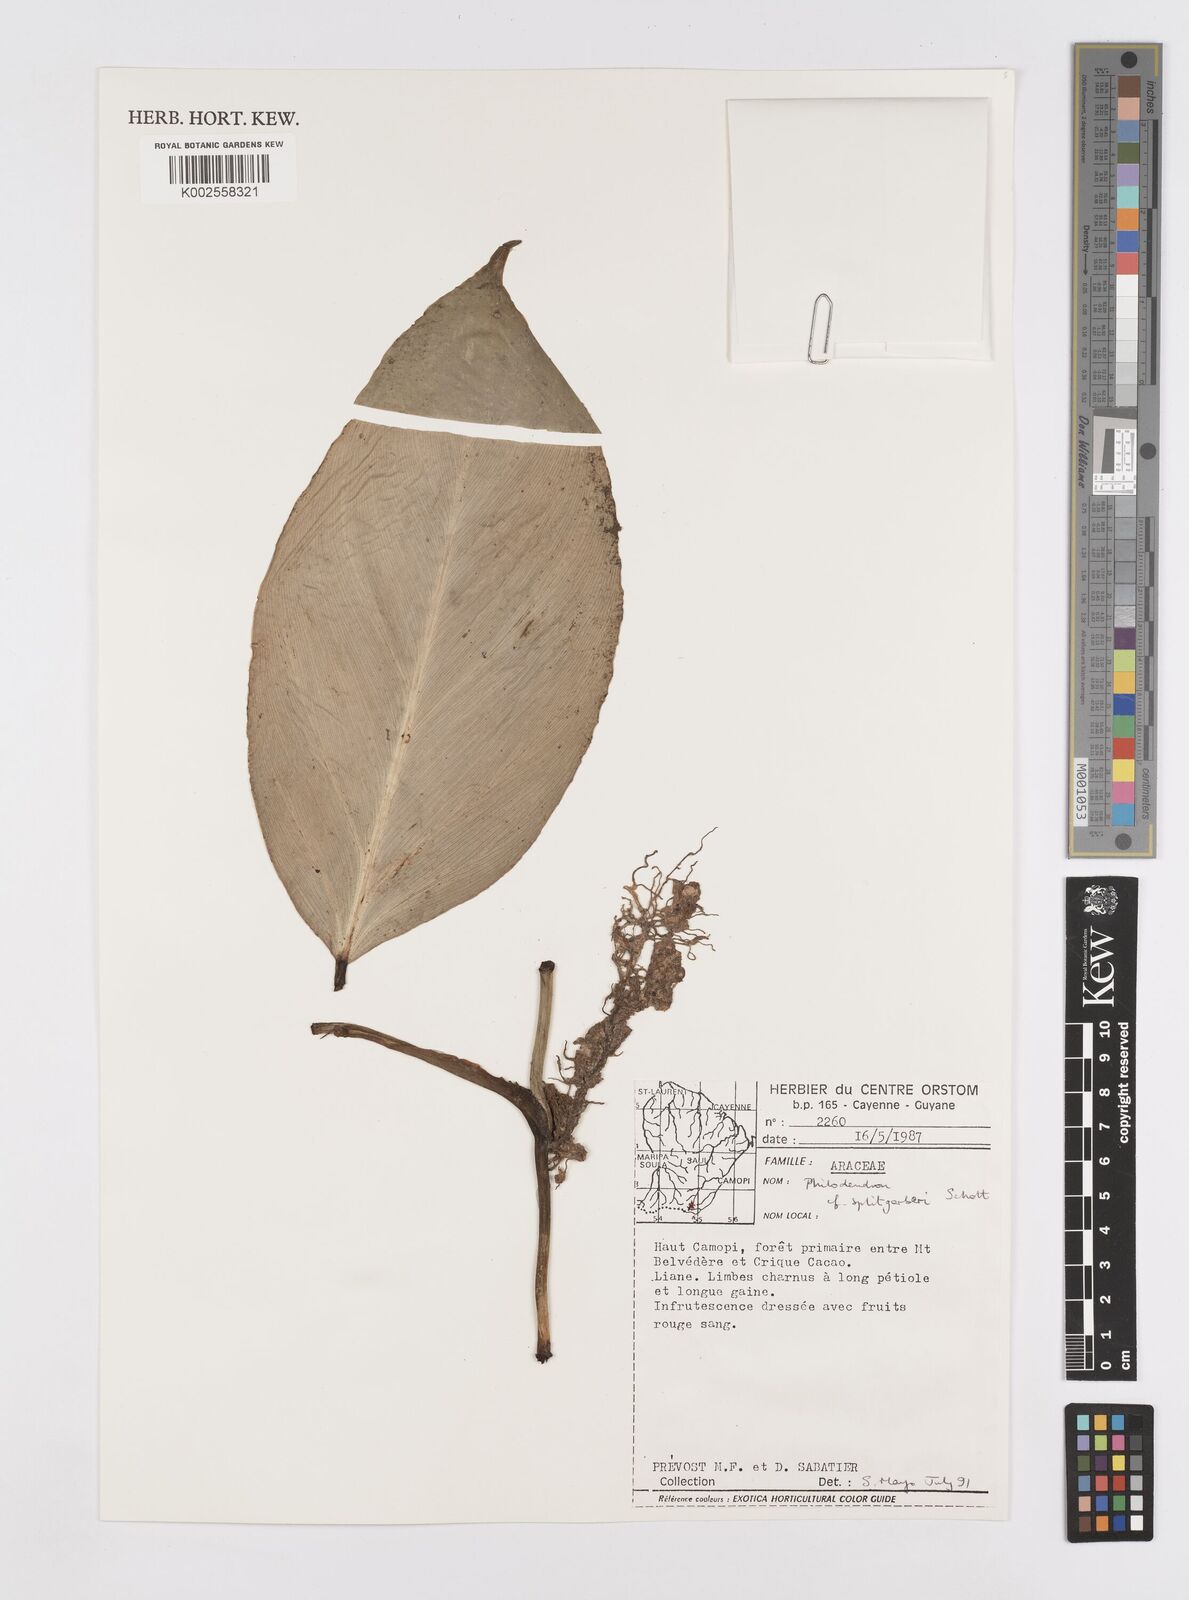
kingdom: Plantae
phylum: Tracheophyta
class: Liliopsida
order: Alismatales
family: Araceae
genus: Philodendron
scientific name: Philodendron splitgerberi
